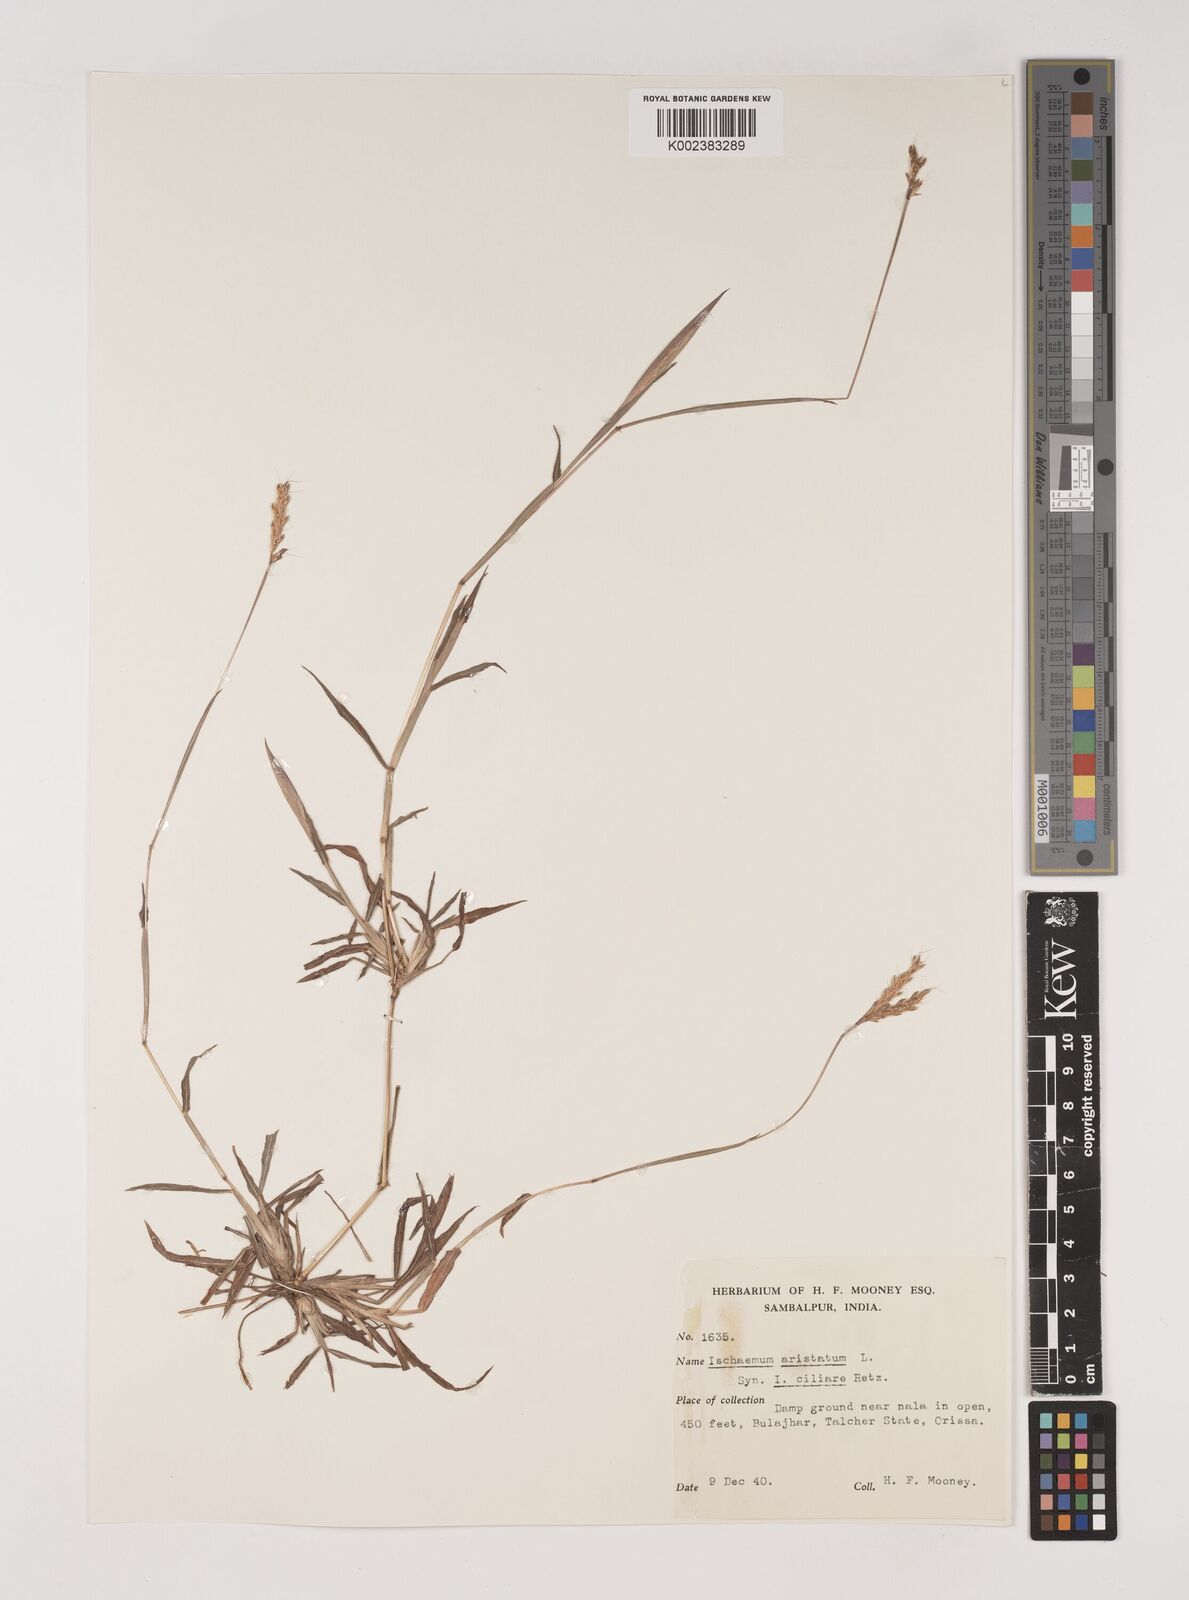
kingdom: Plantae
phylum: Tracheophyta
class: Liliopsida
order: Poales
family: Poaceae
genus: Polytrias
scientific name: Polytrias indica
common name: Indian murainagrass
